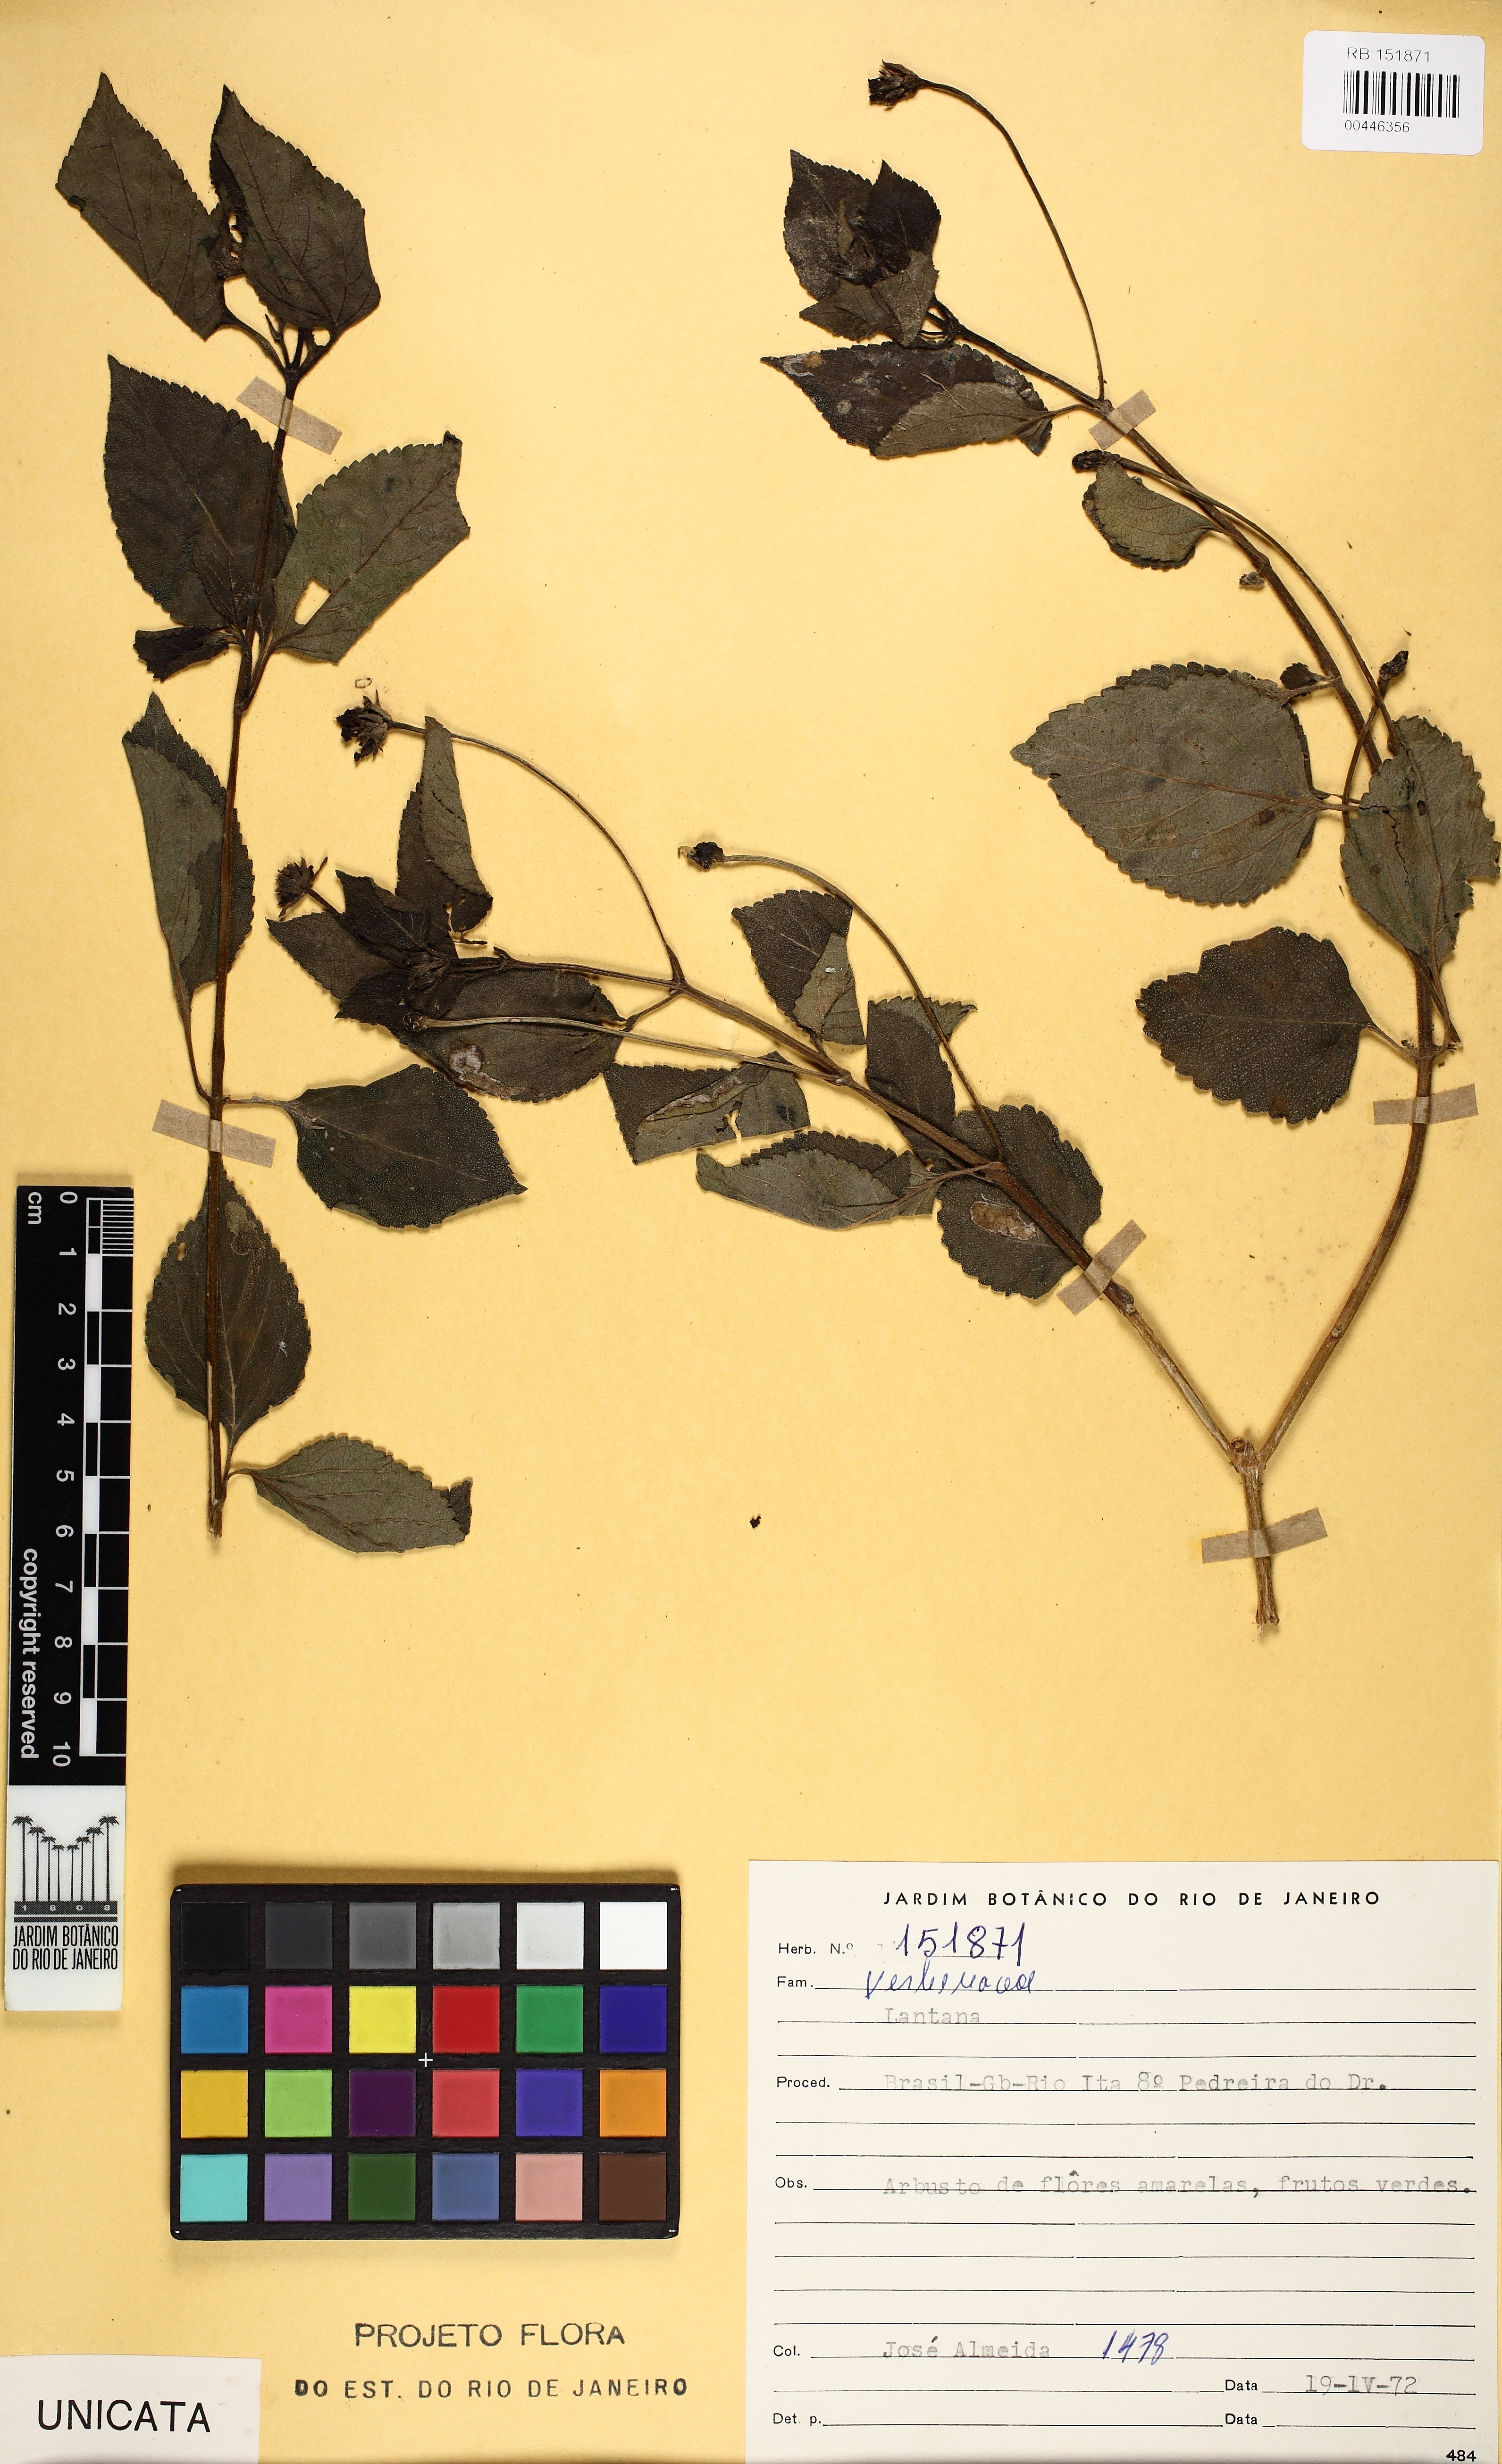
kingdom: Plantae
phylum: Tracheophyta
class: Magnoliopsida
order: Lamiales
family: Verbenaceae
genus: Lantana
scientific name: Lantana
